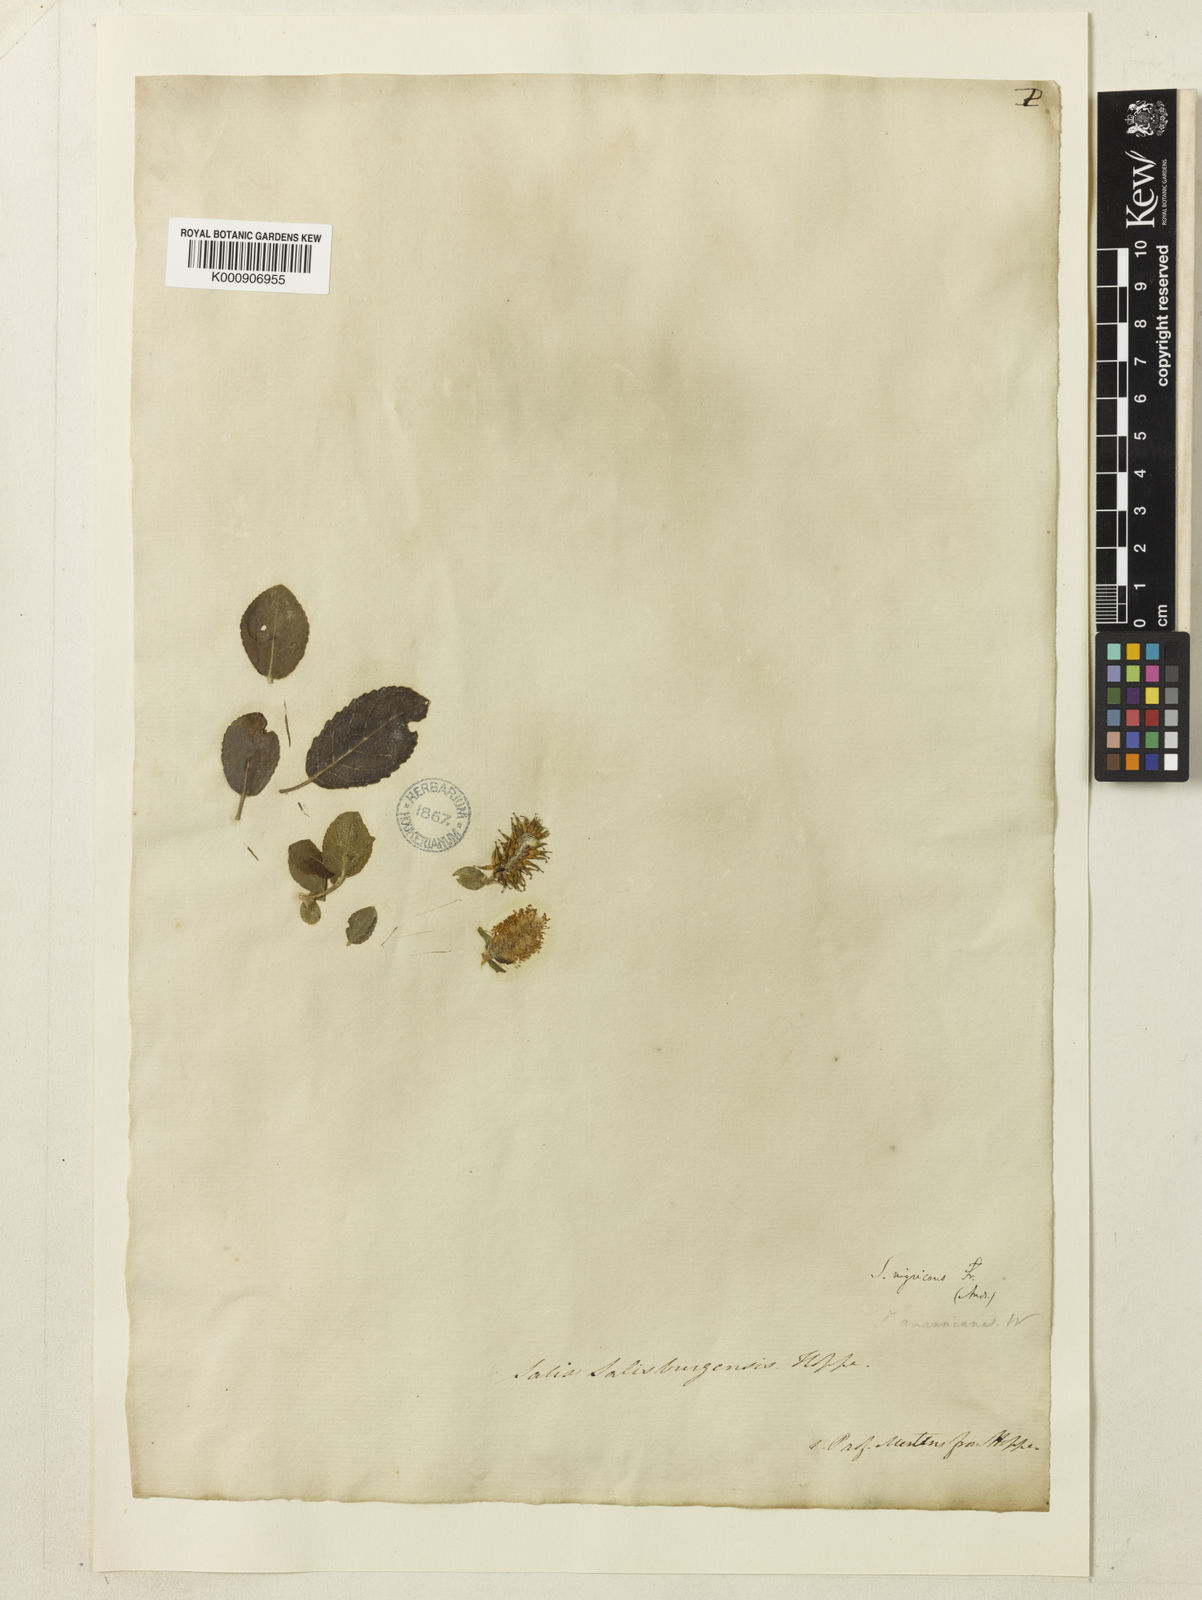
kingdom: Plantae
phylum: Tracheophyta
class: Magnoliopsida
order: Malpighiales
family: Salicaceae
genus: Salix
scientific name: Salix myrsinifolia
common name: Dark-leaved willow
